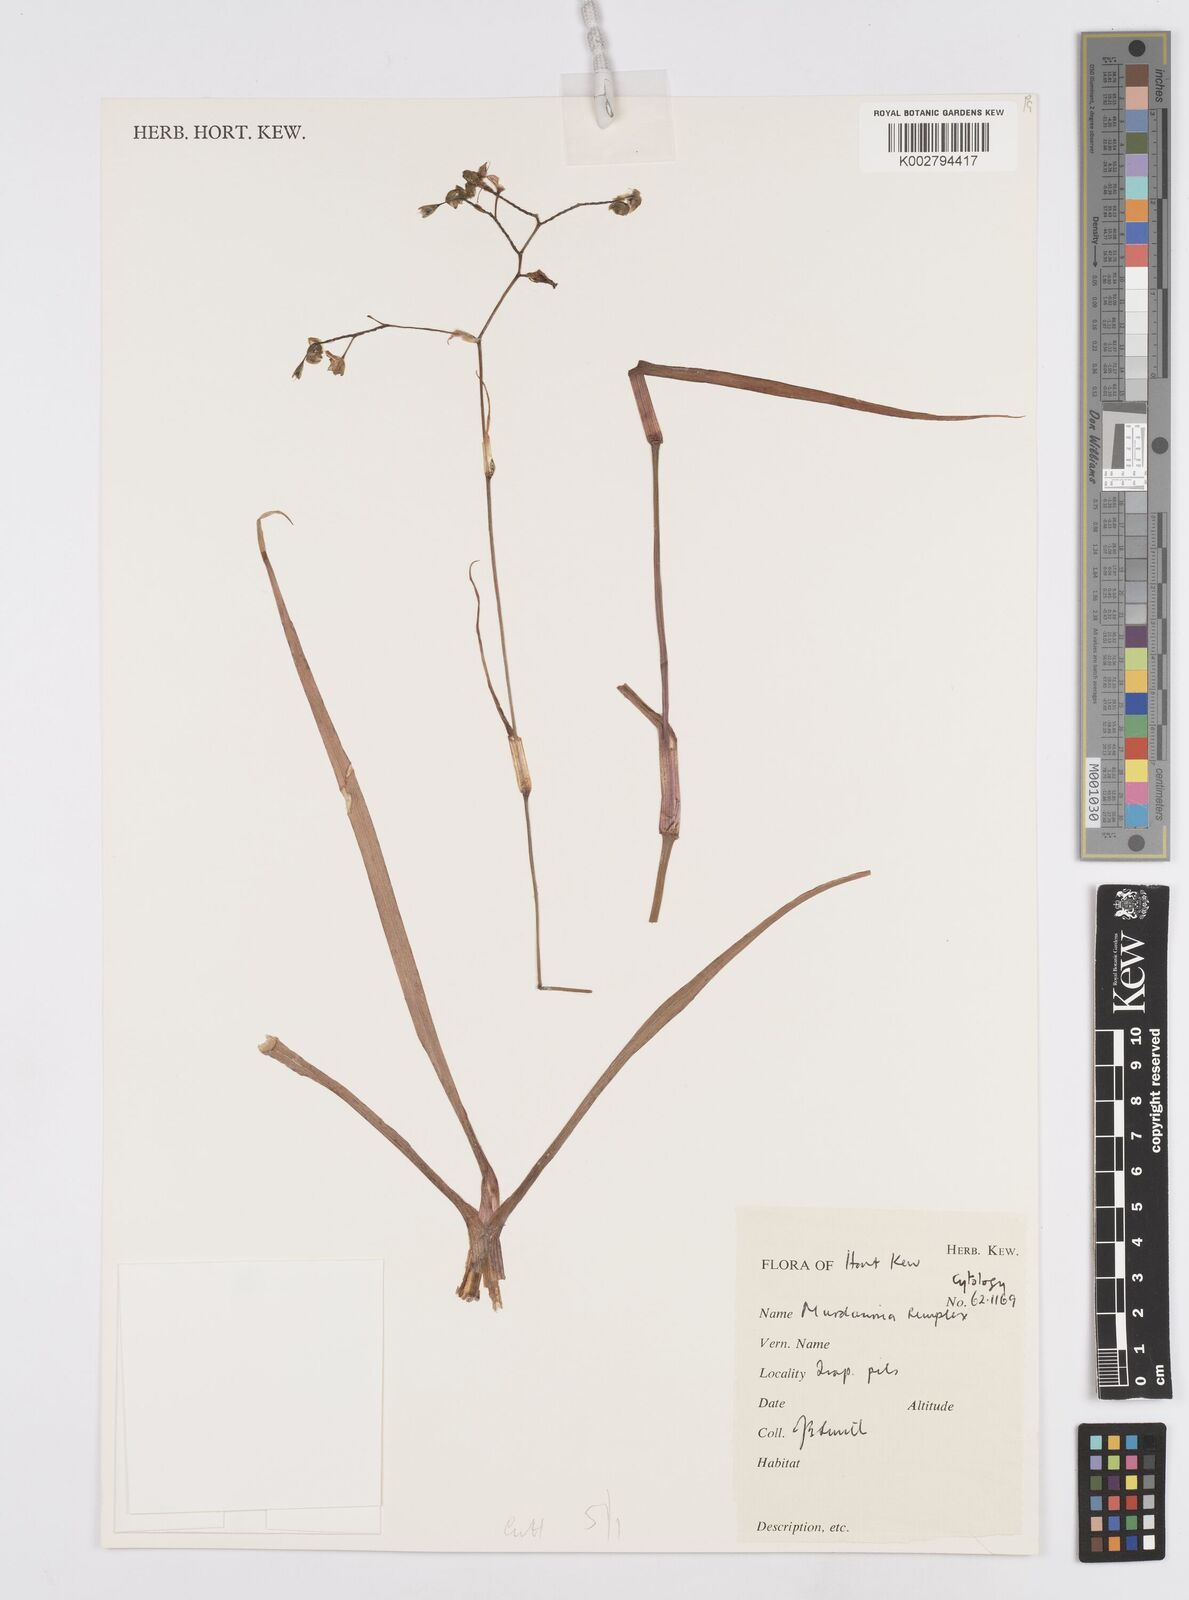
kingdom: Plantae
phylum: Tracheophyta
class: Liliopsida
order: Commelinales
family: Commelinaceae
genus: Murdannia
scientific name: Murdannia simplex
